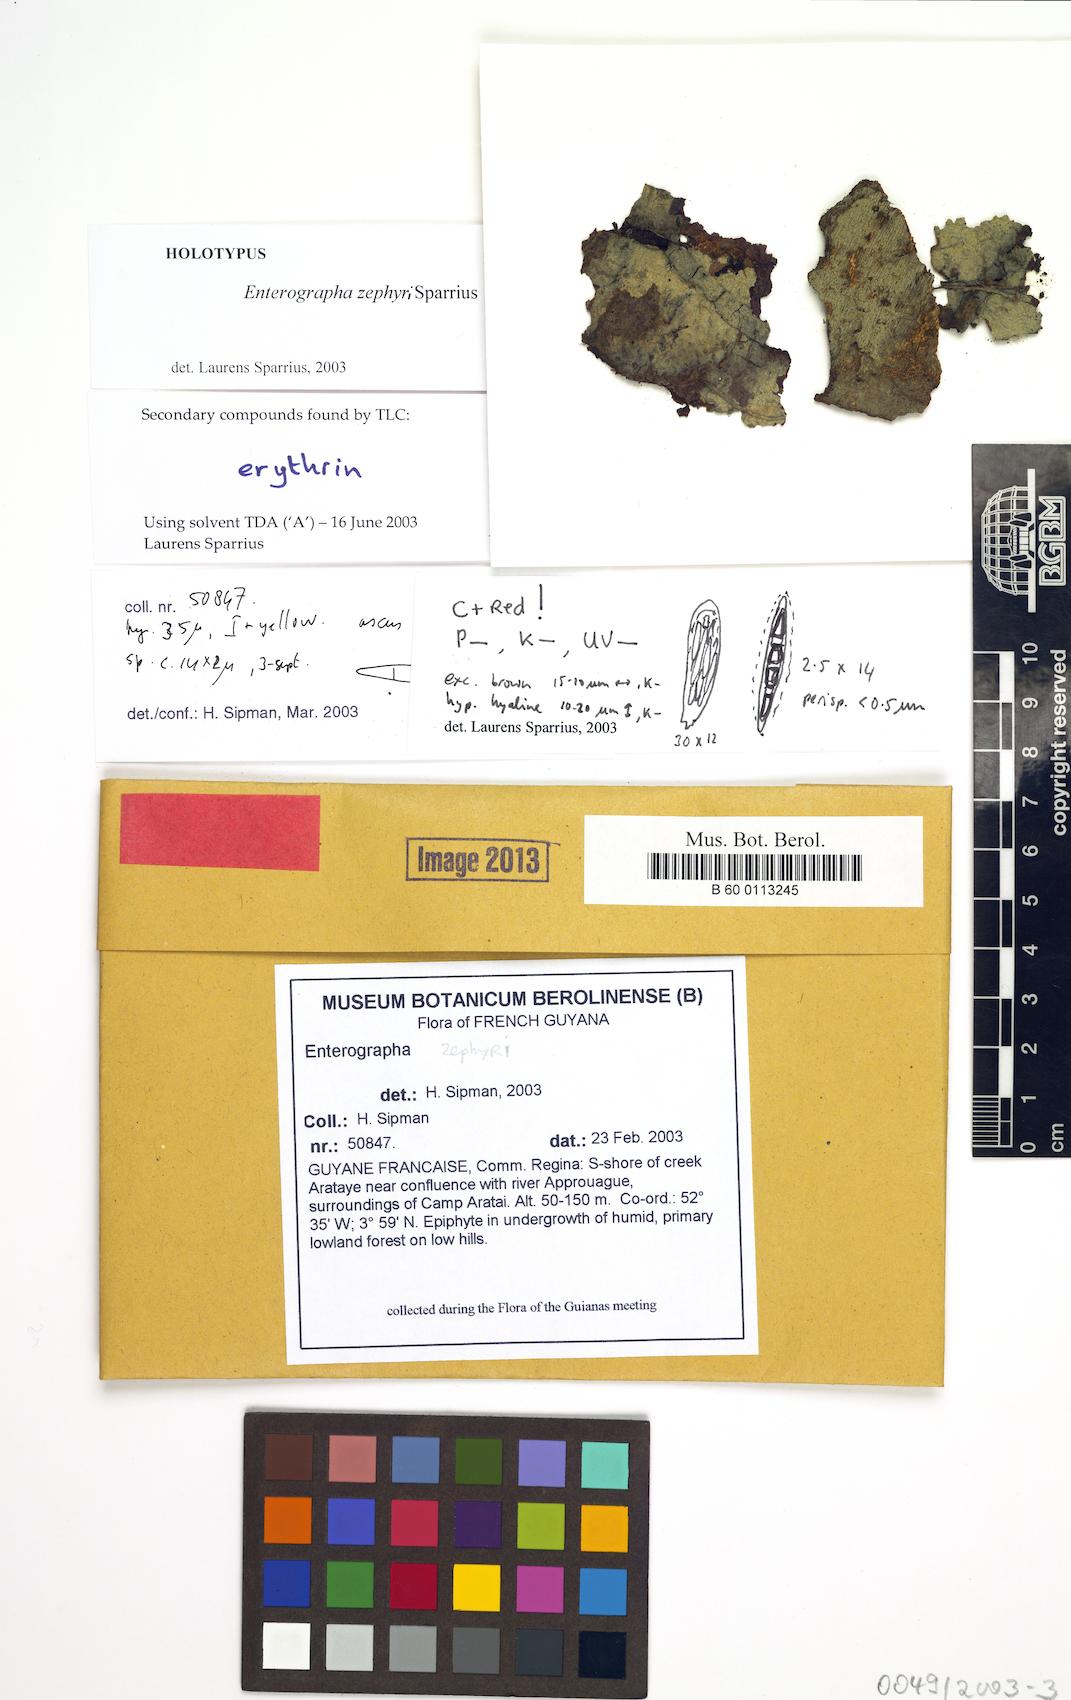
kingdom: Fungi
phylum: Ascomycota
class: Arthoniomycetes
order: Arthoniales
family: Roccellaceae
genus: Enterographa
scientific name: Enterographa zephyri
